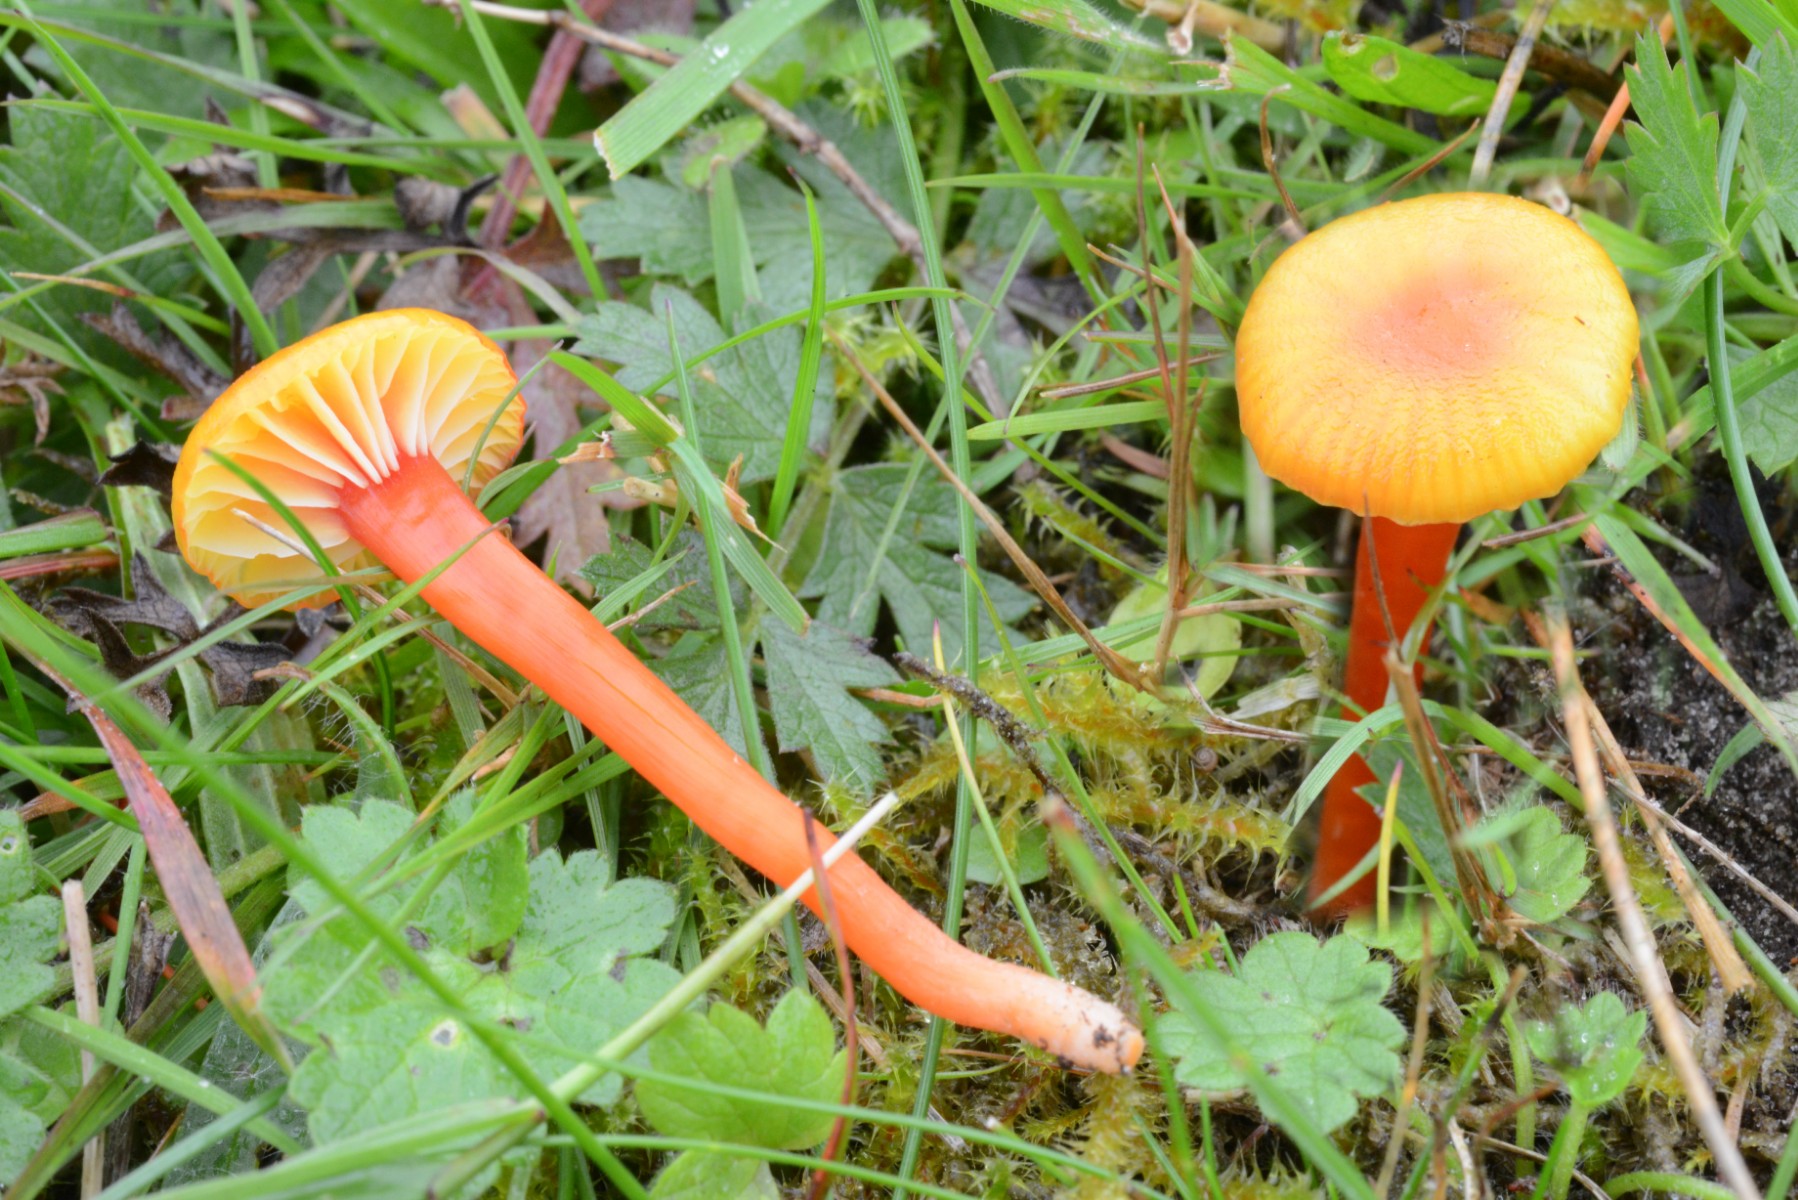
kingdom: Fungi
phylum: Basidiomycota
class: Agaricomycetes
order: Agaricales
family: Hygrophoraceae
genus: Hygrocybe
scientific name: Hygrocybe insipida
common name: liden vokshat
